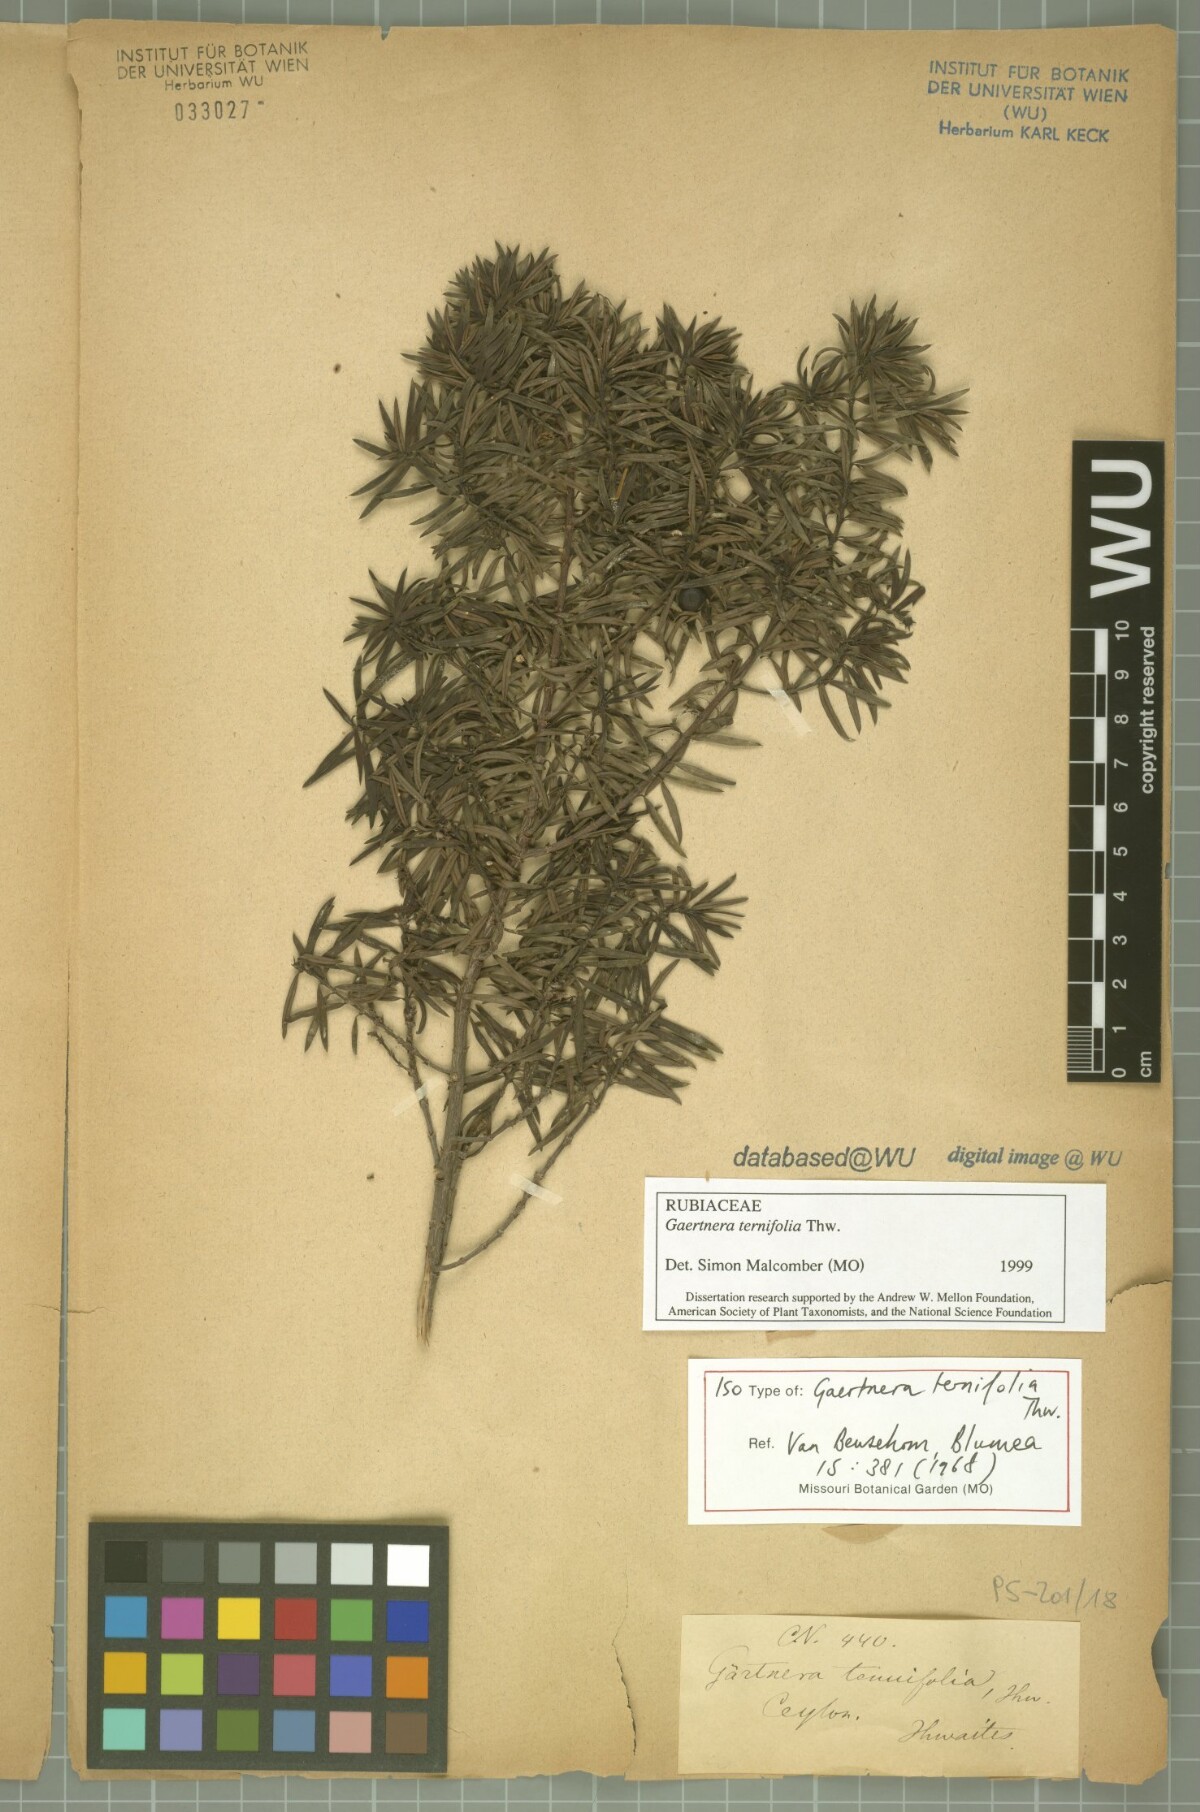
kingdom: Plantae
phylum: Tracheophyta
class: Magnoliopsida
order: Gentianales
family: Rubiaceae
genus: Gaertnera
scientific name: Gaertnera ternifolia
